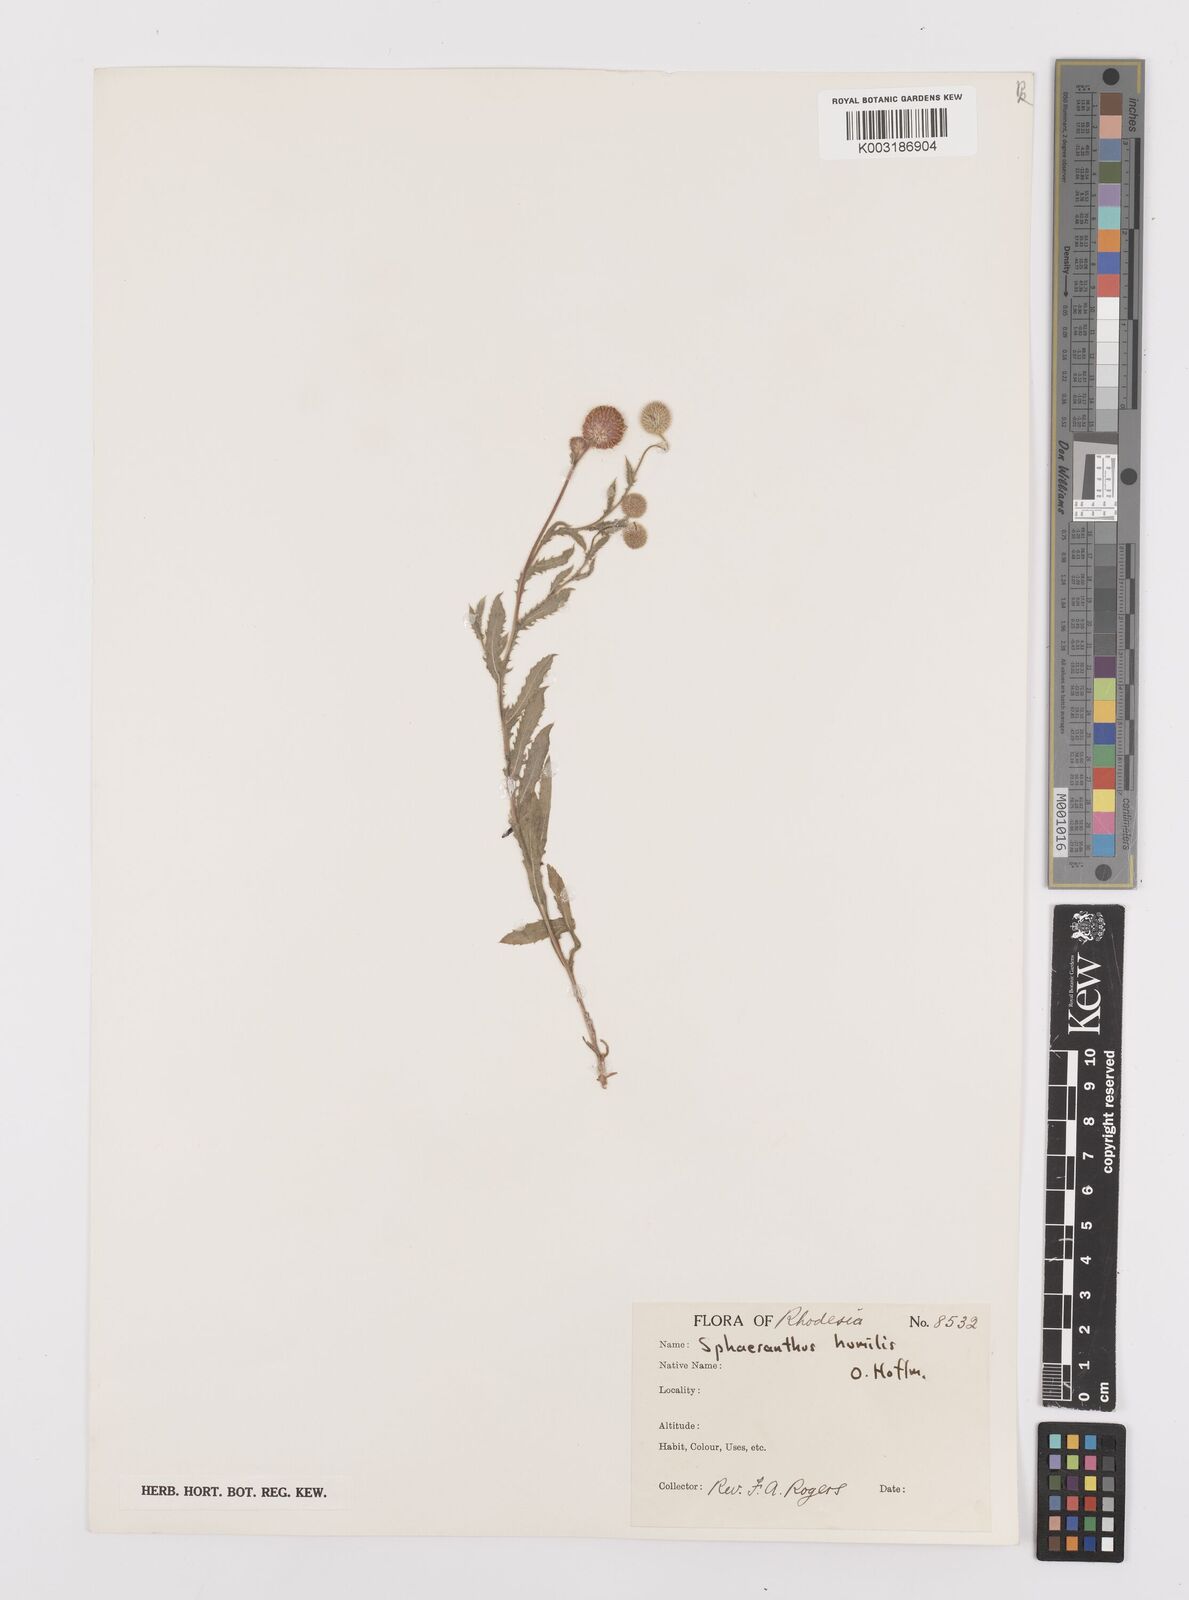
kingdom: Plantae
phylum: Tracheophyta
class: Magnoliopsida
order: Asterales
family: Asteraceae
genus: Sphaeranthus
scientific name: Sphaeranthus flexuosus
